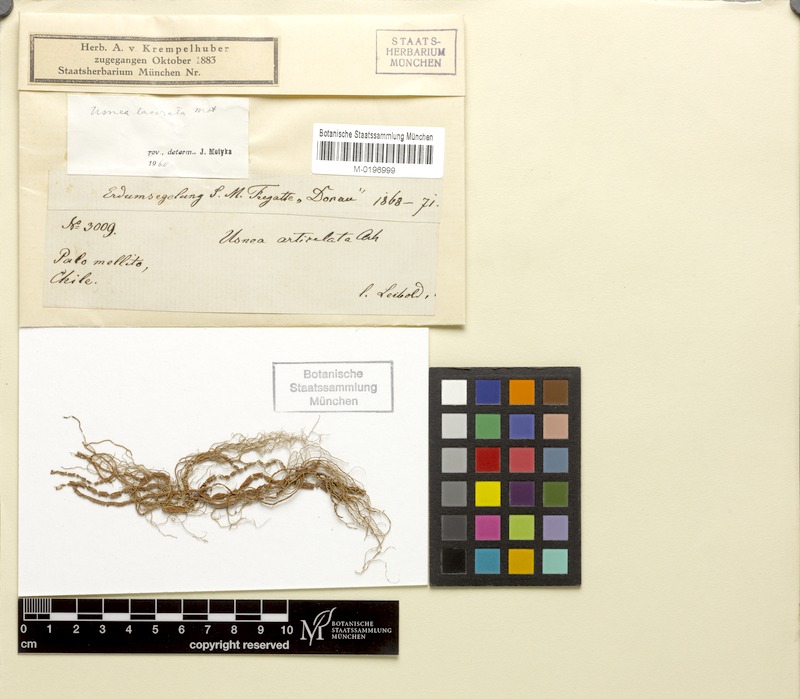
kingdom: Fungi
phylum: Ascomycota
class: Lecanoromycetes
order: Lecanorales
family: Parmeliaceae
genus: Usnea
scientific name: Usnea lacerata
